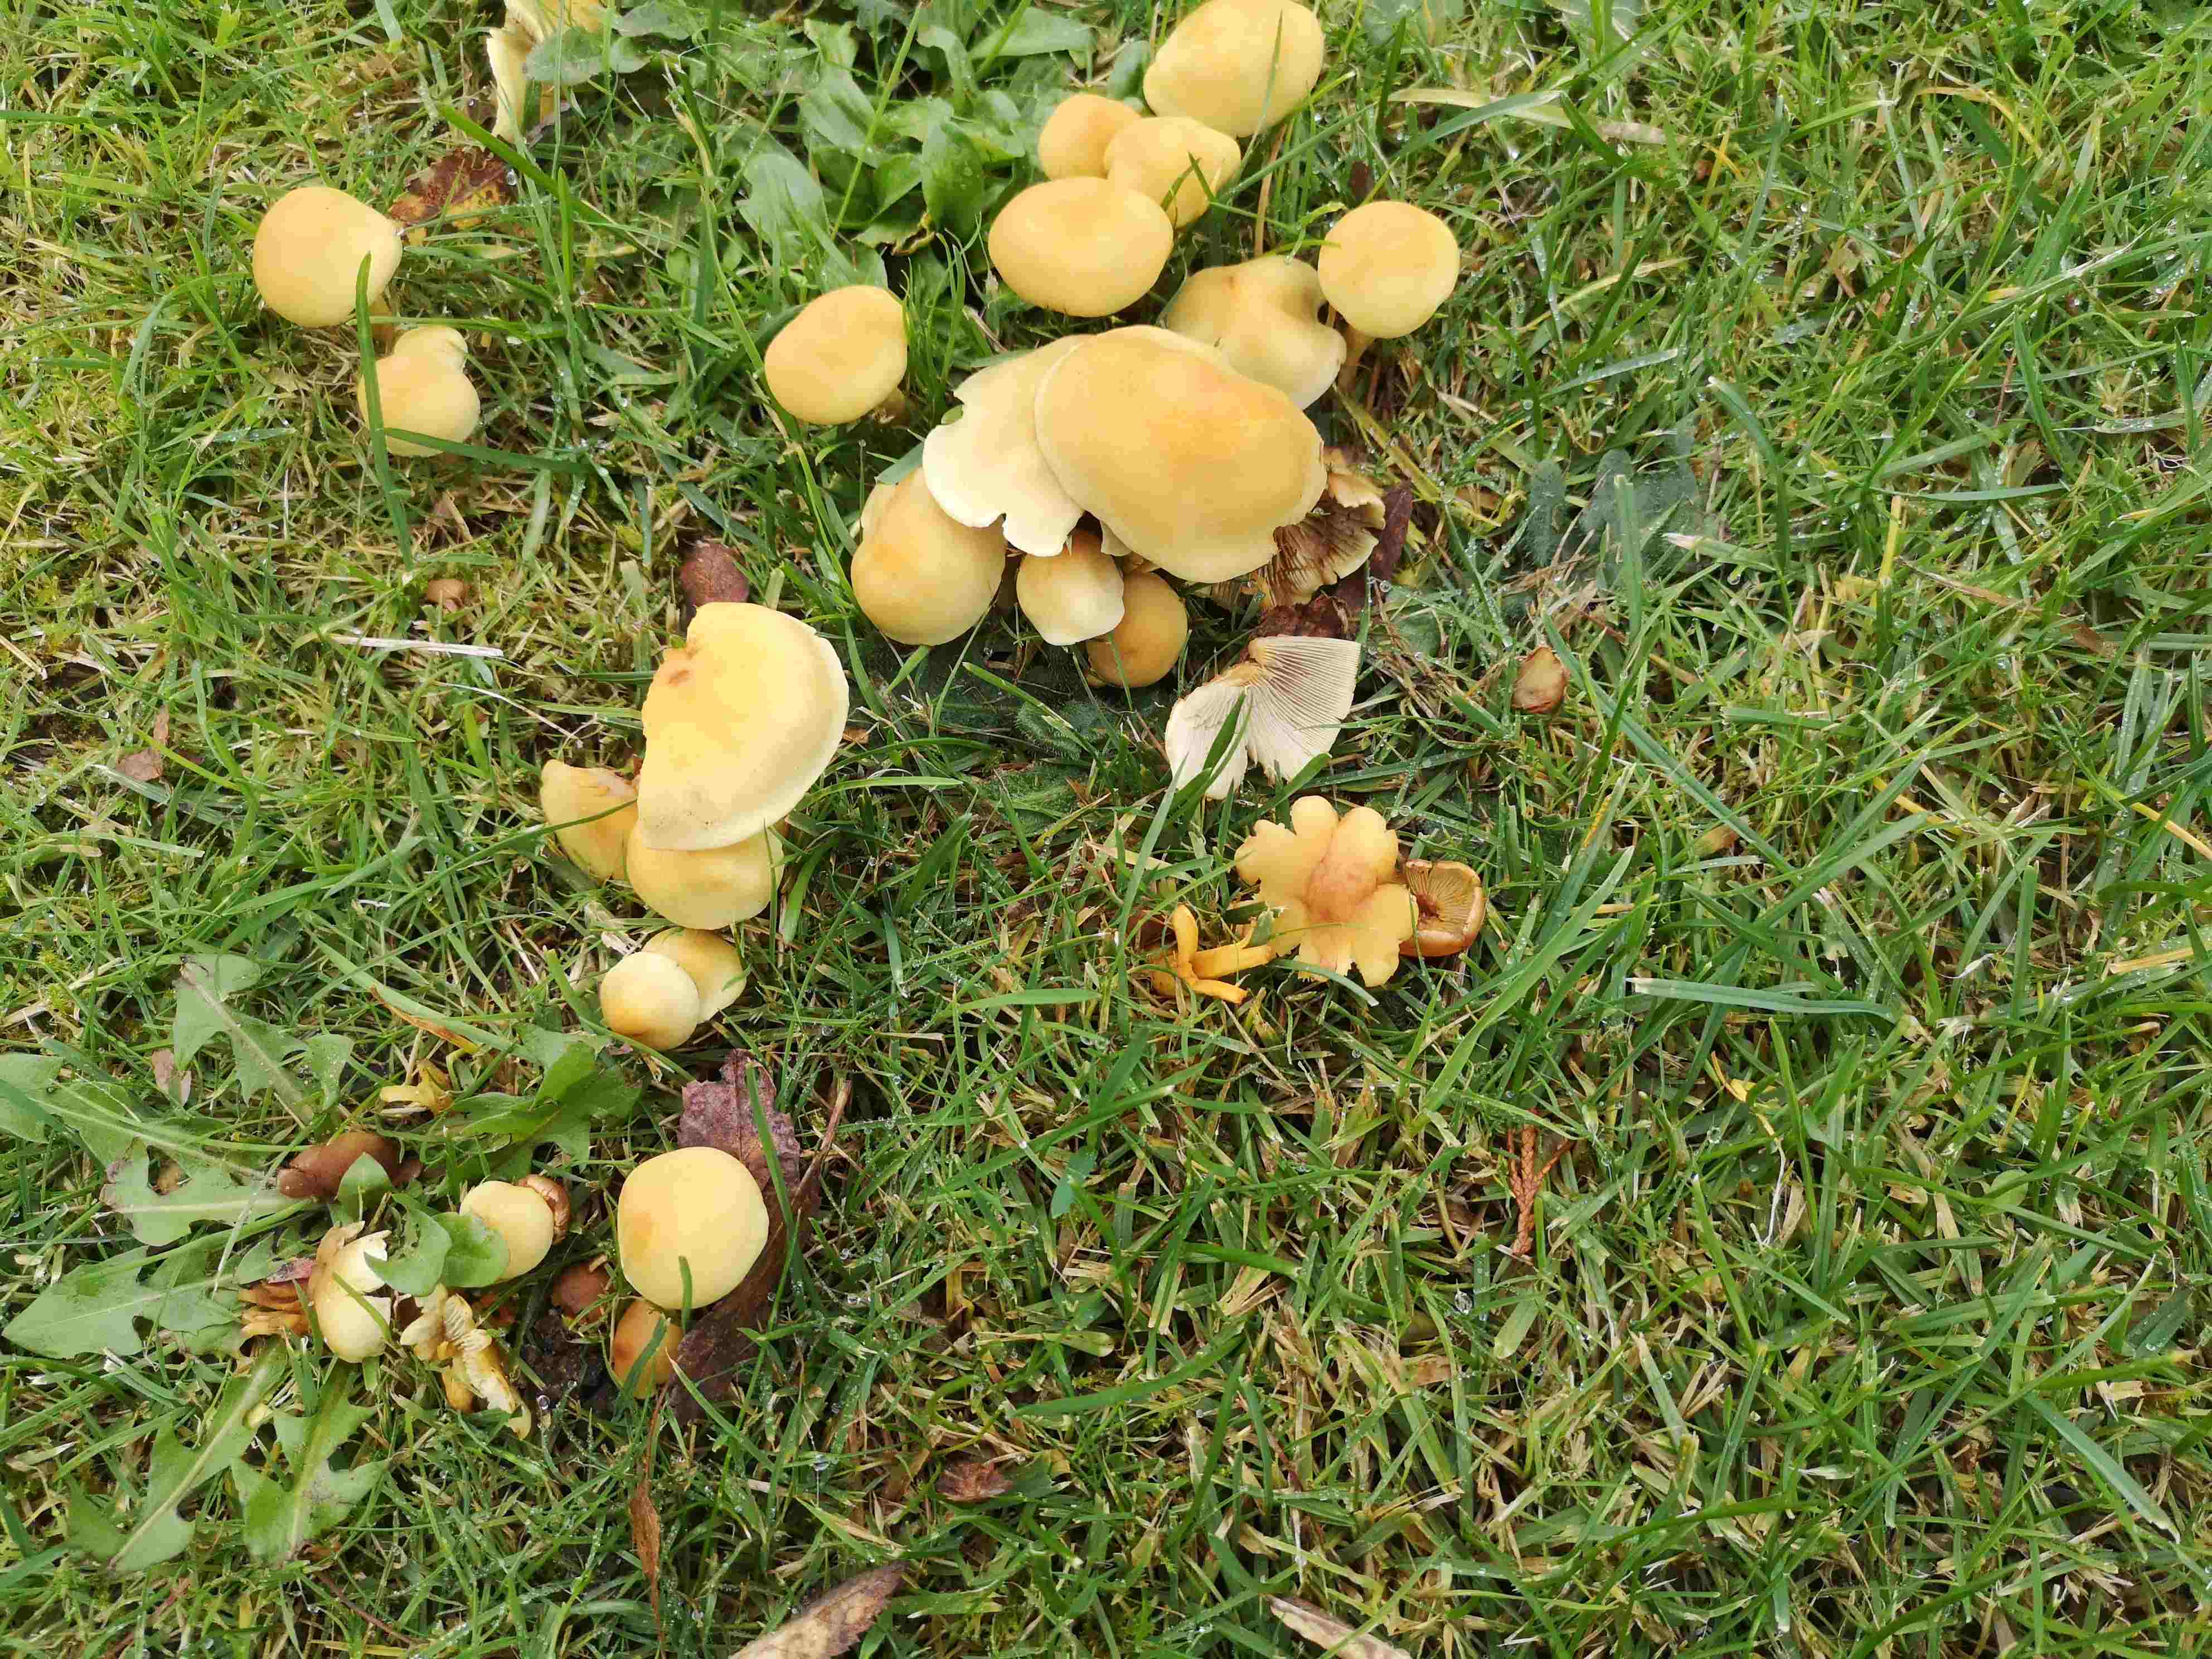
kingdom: Fungi
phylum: Basidiomycota
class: Agaricomycetes
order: Agaricales
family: Strophariaceae
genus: Hypholoma
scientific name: Hypholoma fasciculare
